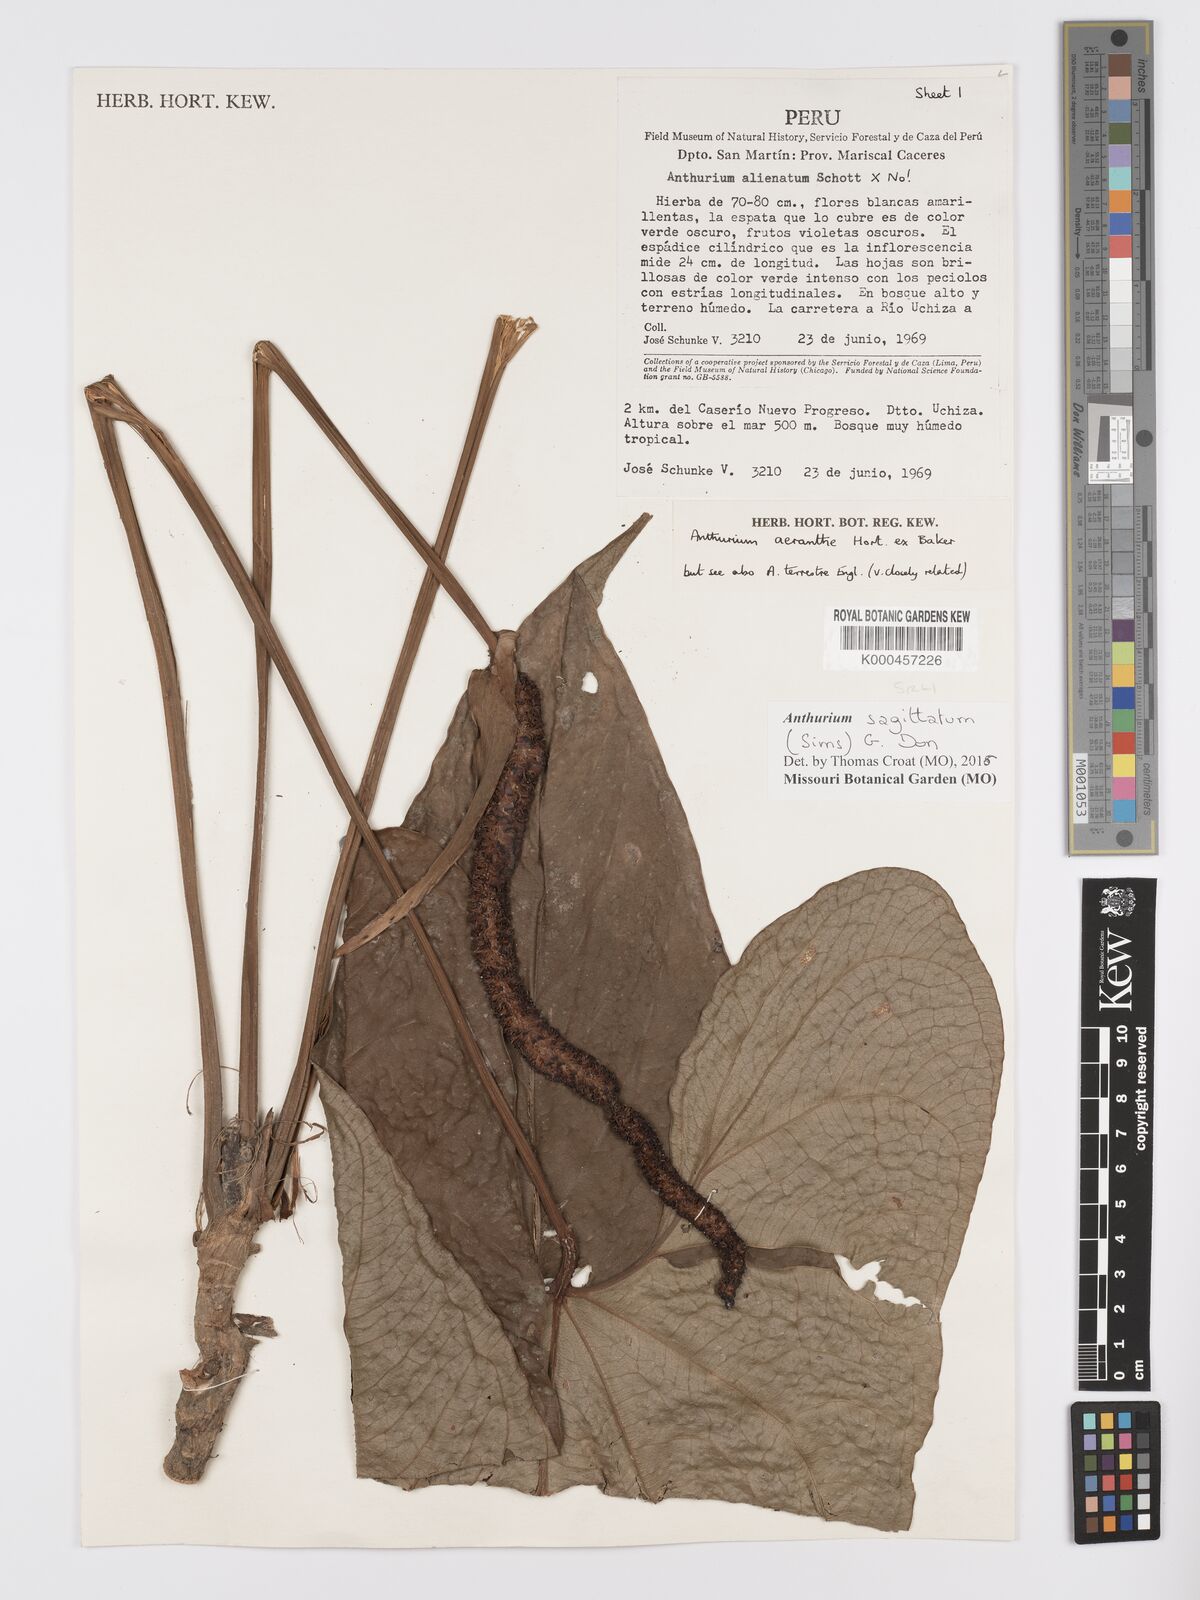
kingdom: Plantae
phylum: Tracheophyta
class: Liliopsida
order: Alismatales
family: Araceae
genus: Anthurium
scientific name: Anthurium sagittatum
